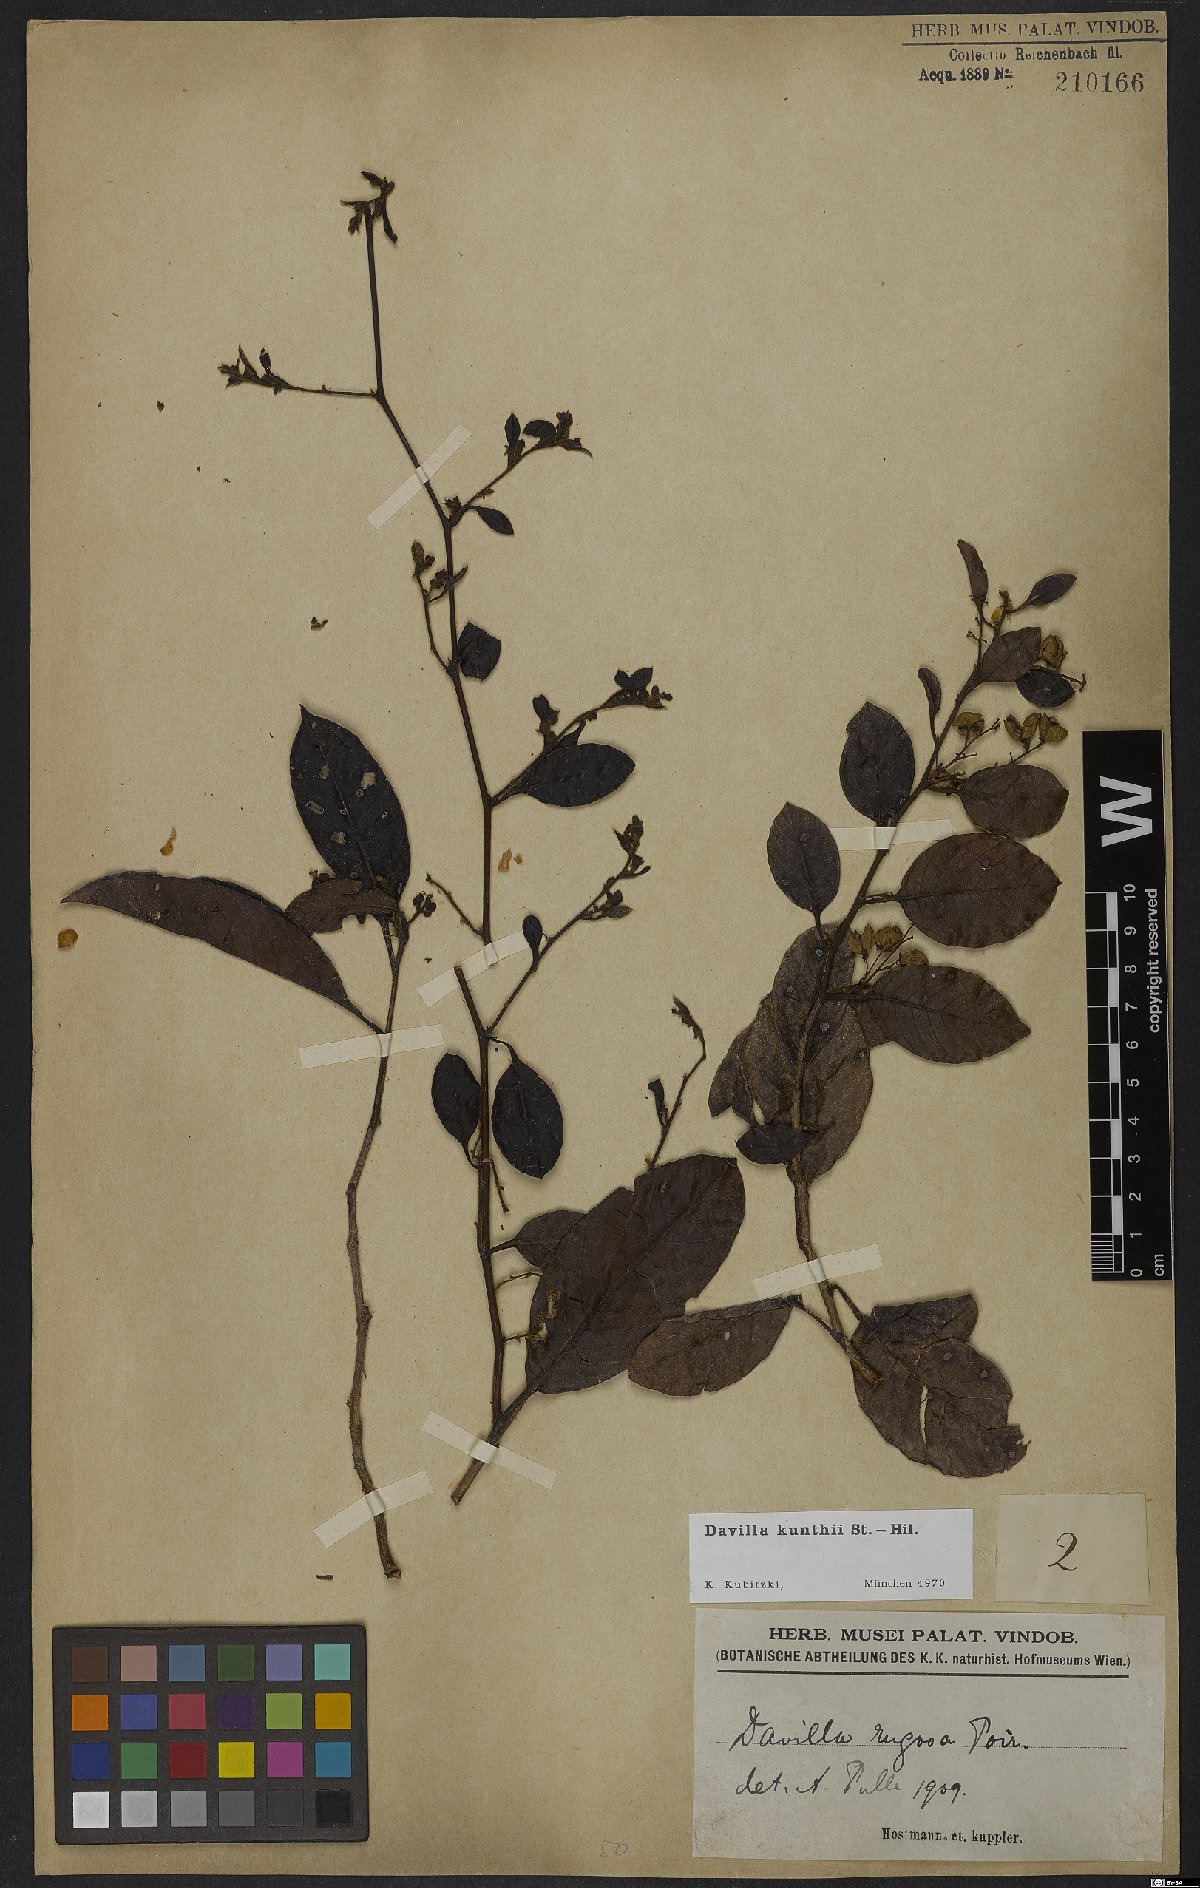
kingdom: Plantae
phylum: Tracheophyta
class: Magnoliopsida
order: Dilleniales
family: Dilleniaceae
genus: Davilla
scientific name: Davilla kunthii
